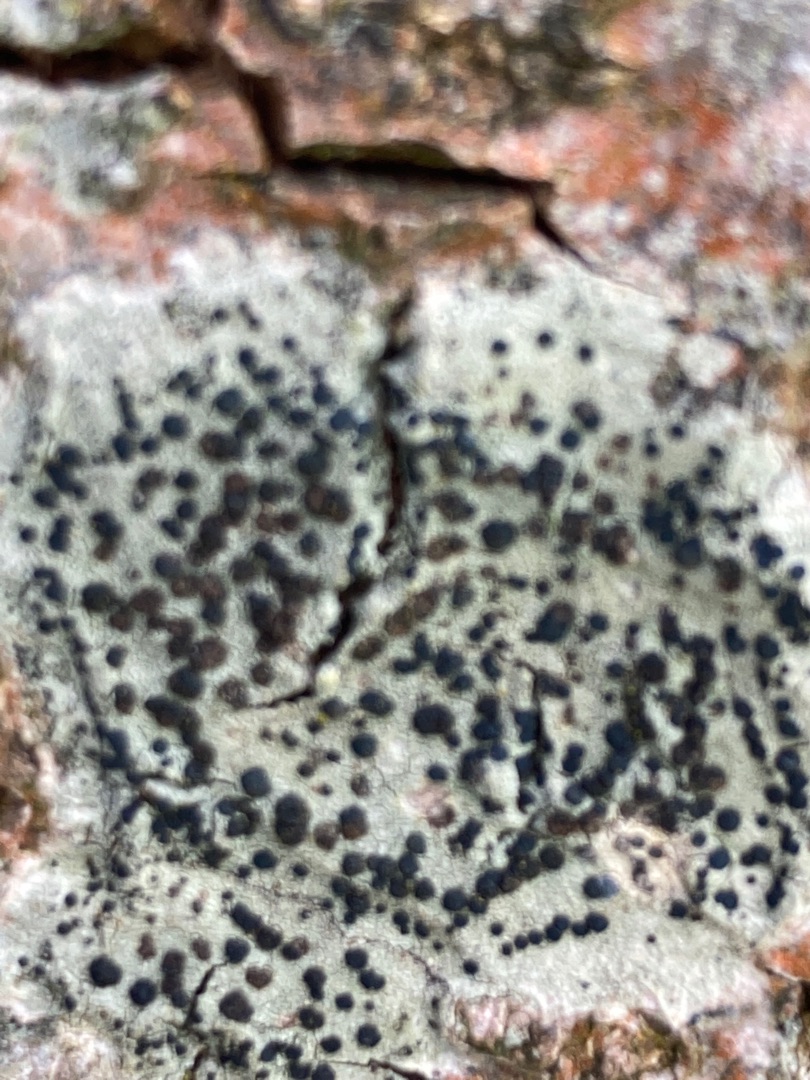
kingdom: Fungi
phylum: Ascomycota
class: Lecanoromycetes
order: Lecanorales
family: Lecanoraceae
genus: Lecidella
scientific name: Lecidella elaeochroma
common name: Grågrøn skivelav
